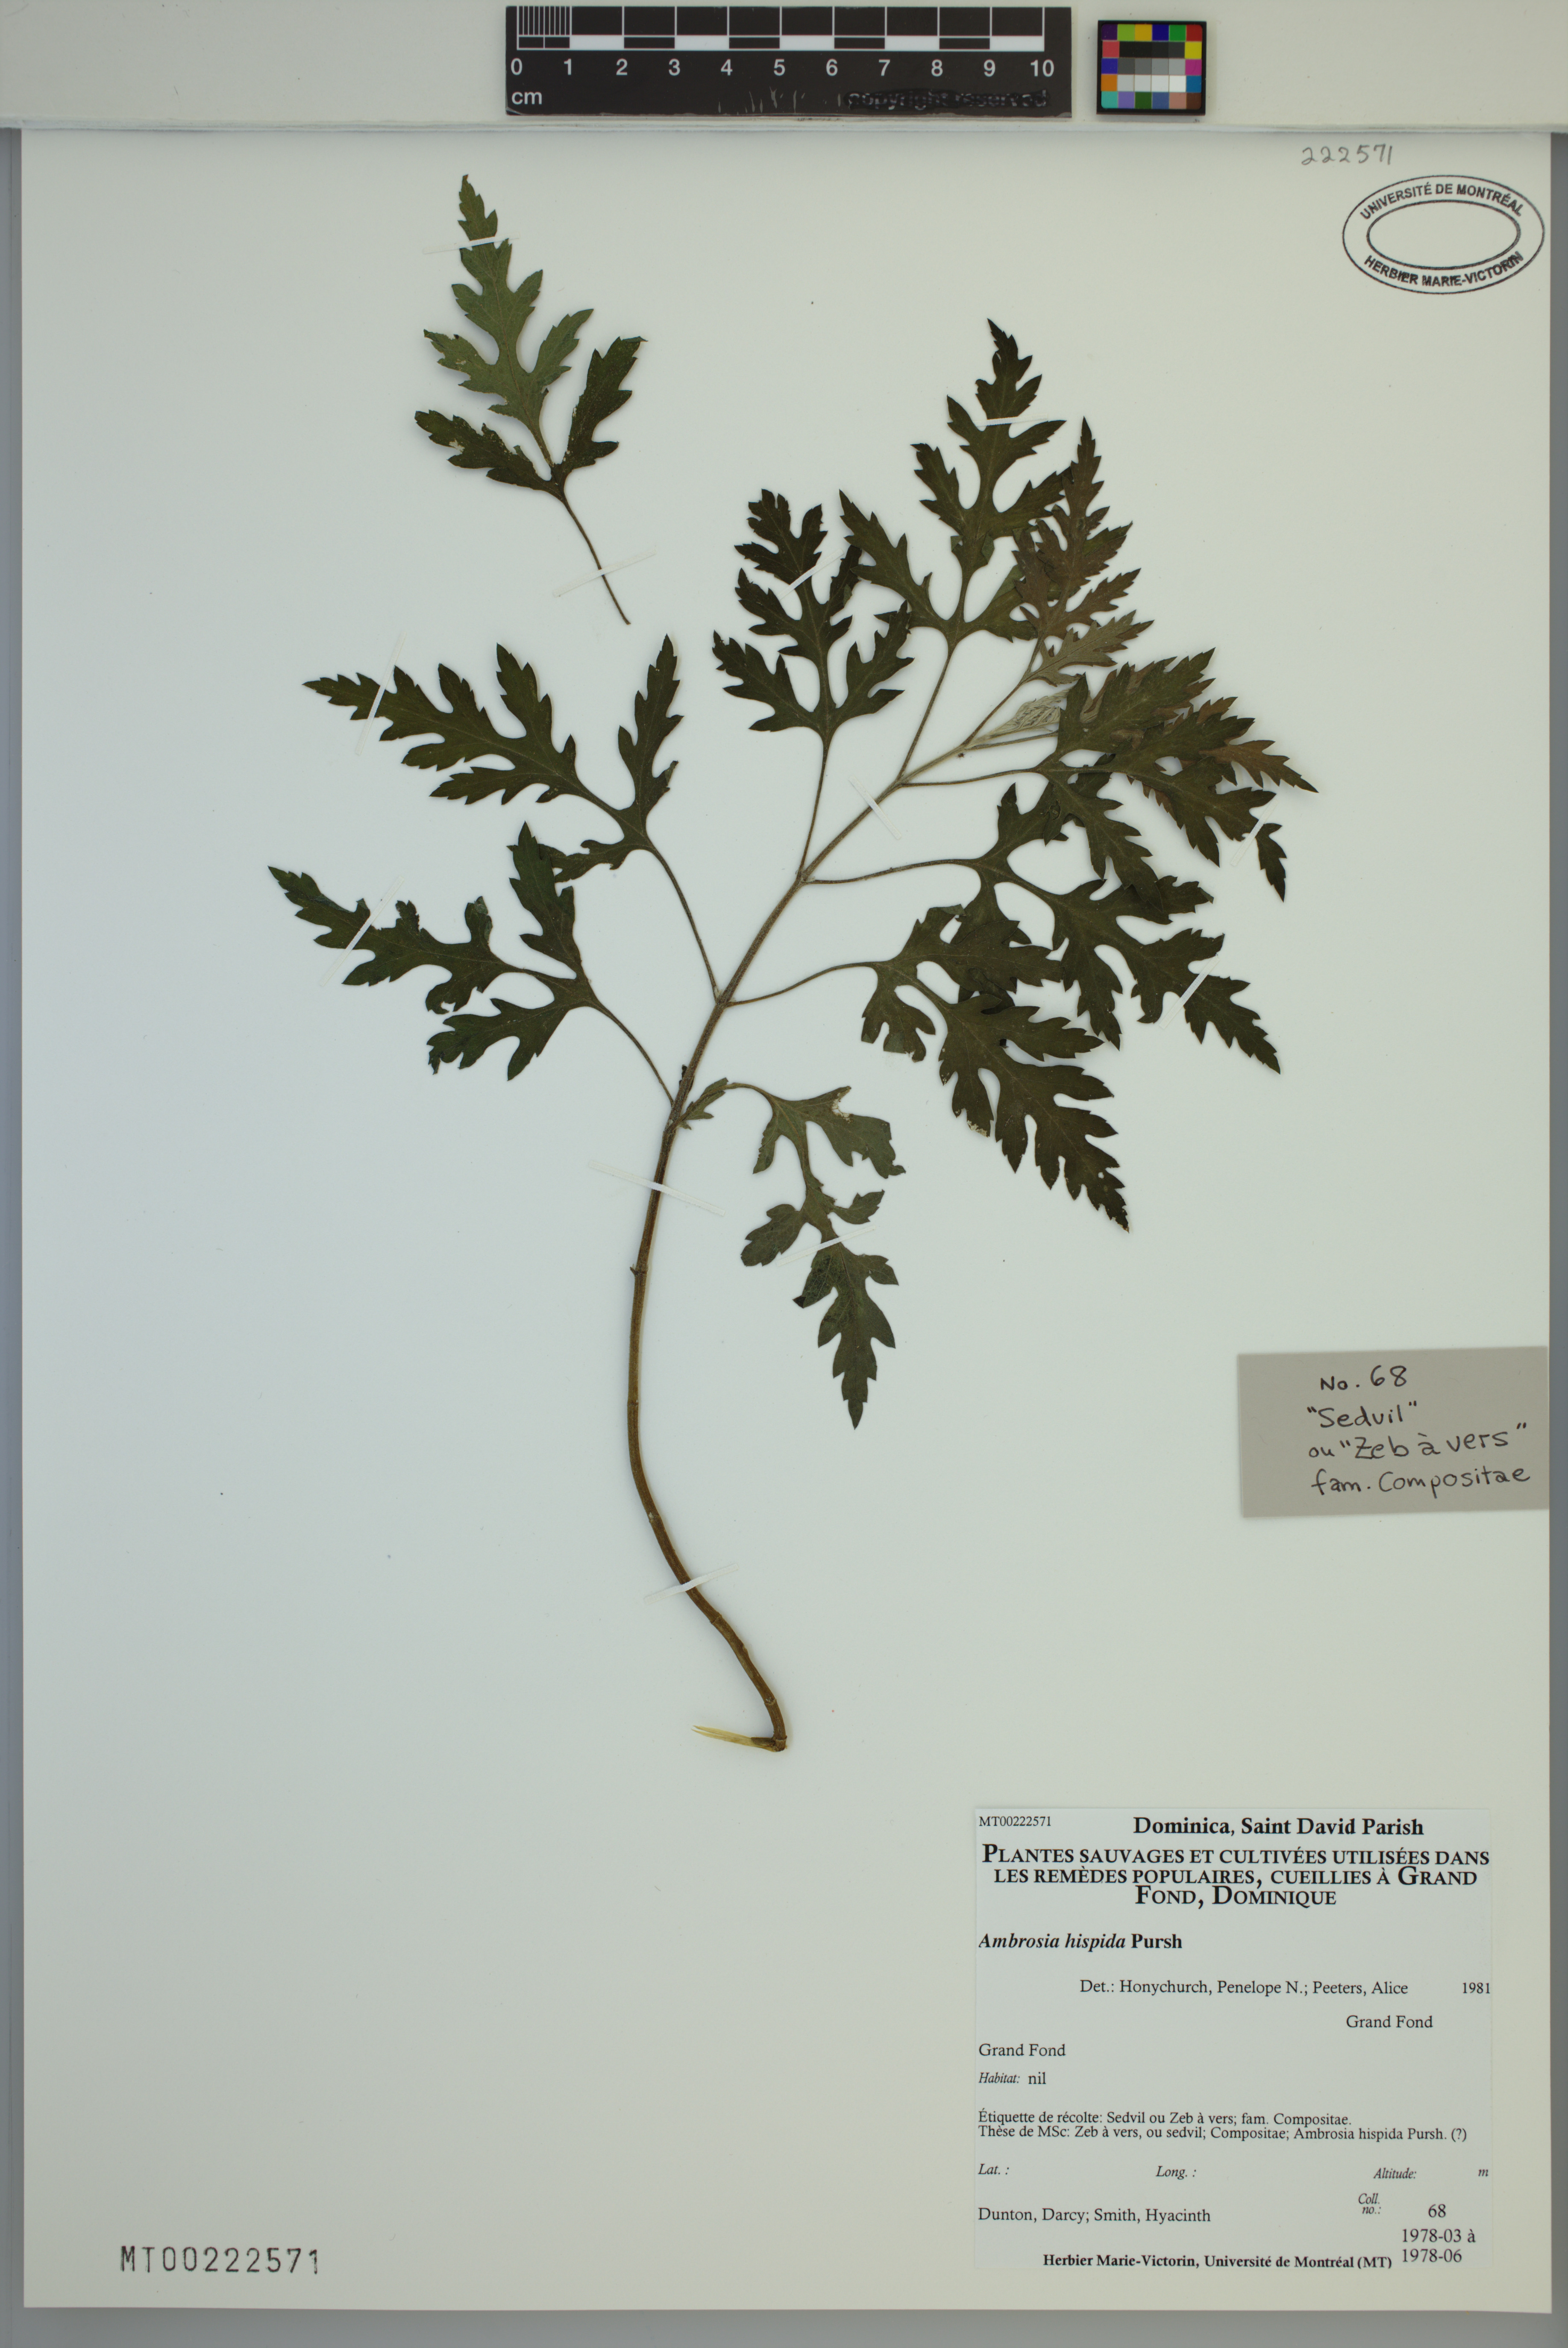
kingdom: Plantae
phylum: Tracheophyta
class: Magnoliopsida
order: Asterales
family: Asteraceae
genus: Ambrosia
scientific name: Ambrosia hispida
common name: Coastal ragweed
